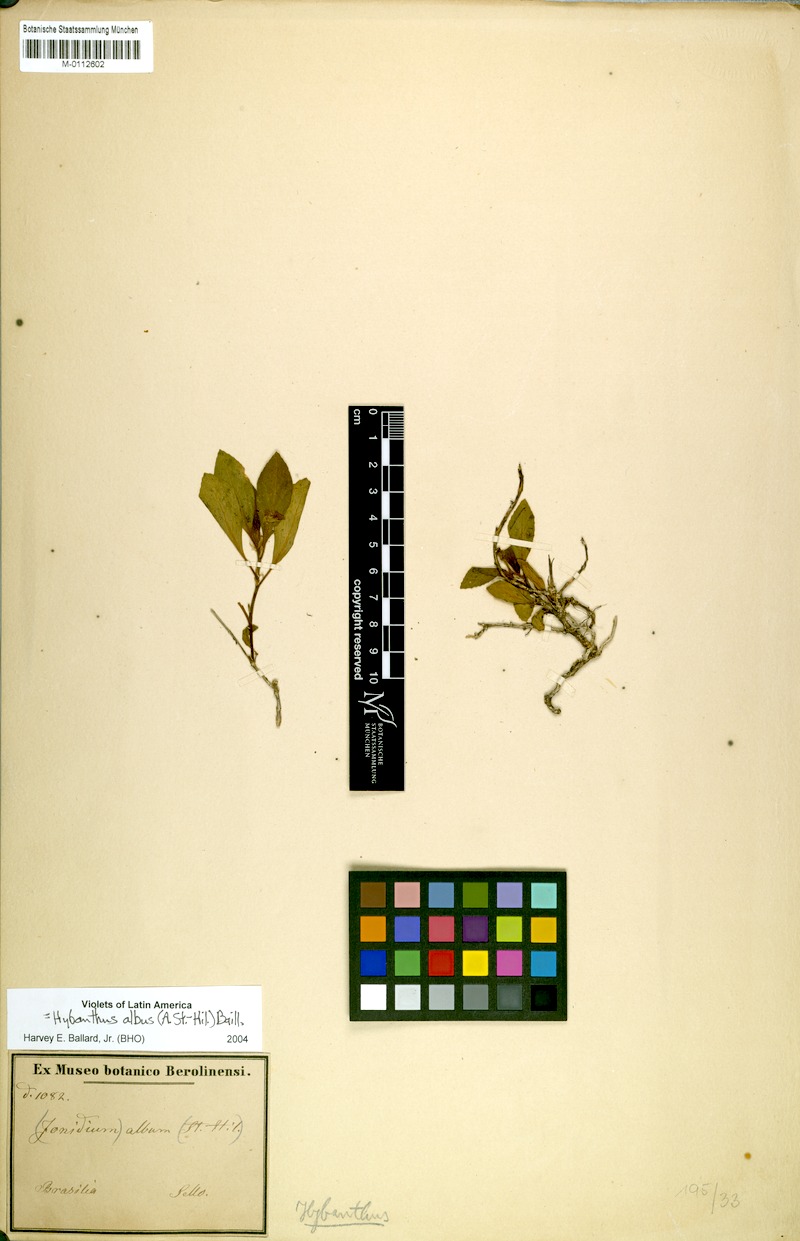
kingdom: Plantae
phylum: Tracheophyta
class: Magnoliopsida
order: Malpighiales
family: Violaceae
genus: Hybanthus
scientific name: Hybanthus albus
